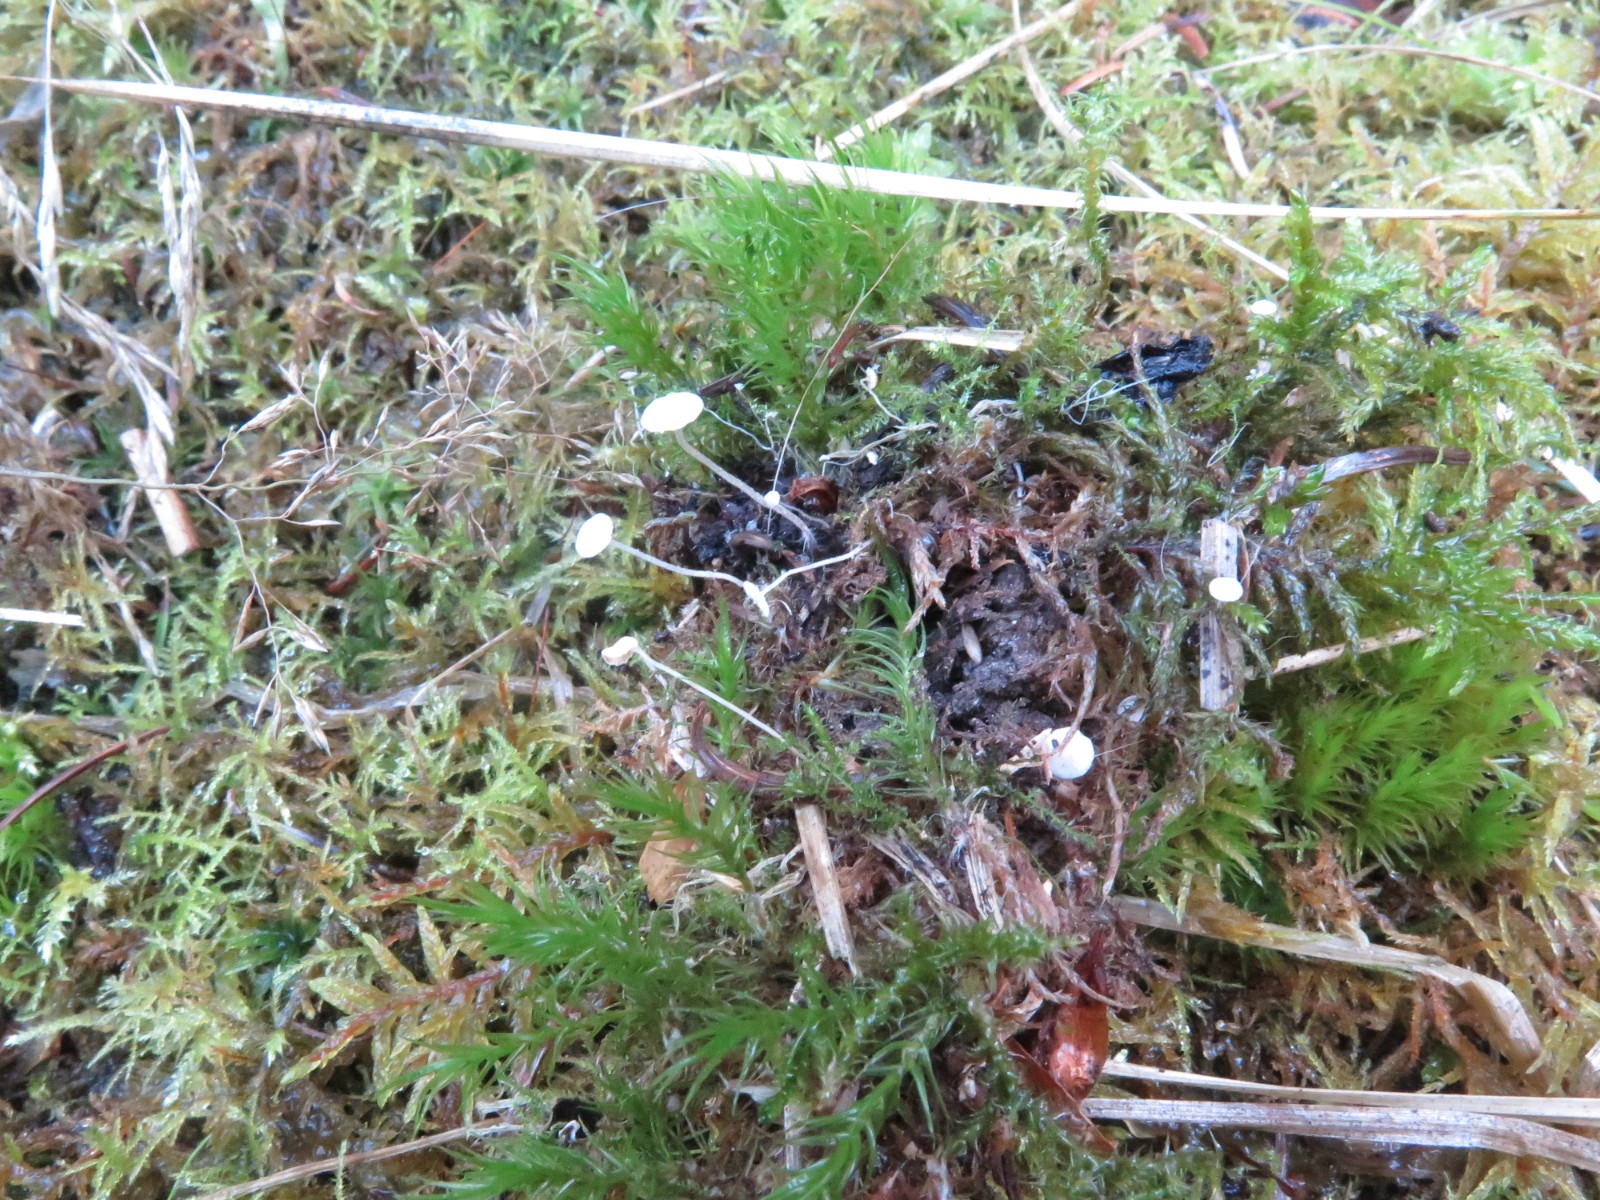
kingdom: Fungi
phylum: Basidiomycota
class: Agaricomycetes
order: Agaricales
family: Tricholomataceae
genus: Collybia
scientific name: Collybia cirrhata
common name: silke-lighat
